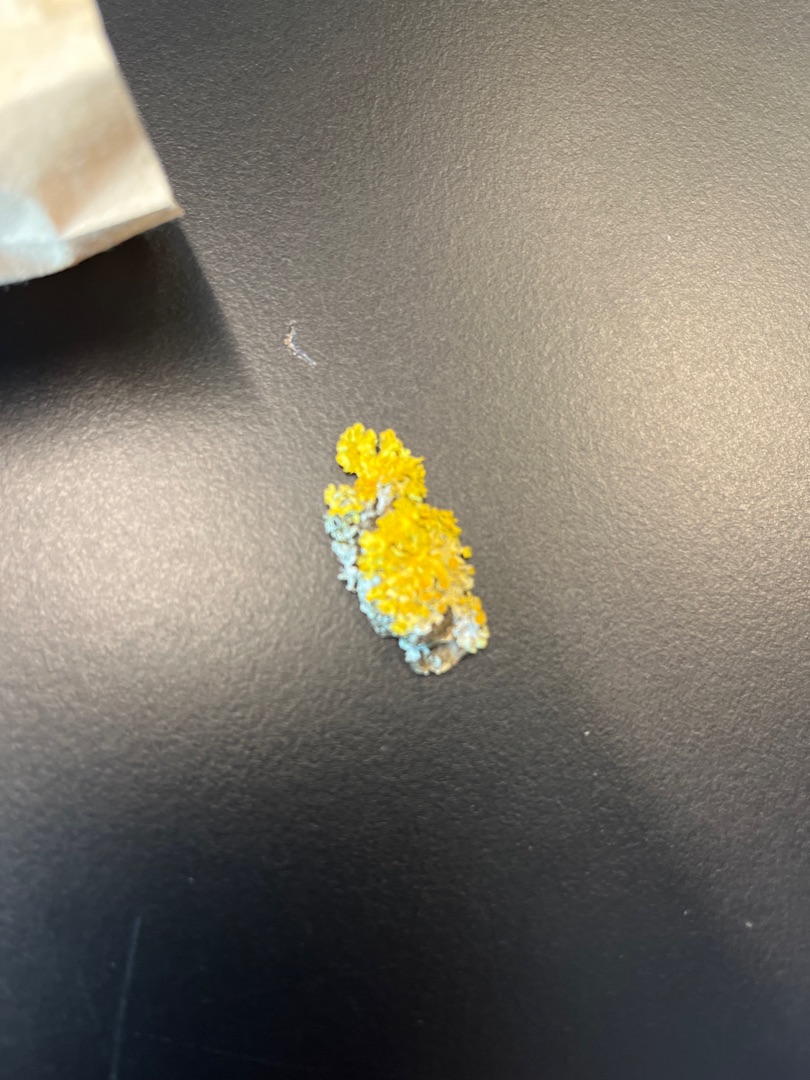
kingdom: Fungi
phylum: Ascomycota
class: Lecanoromycetes
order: Teloschistales
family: Teloschistaceae
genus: Xanthoria
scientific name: Xanthoria parietina
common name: Almindelig væggelav
